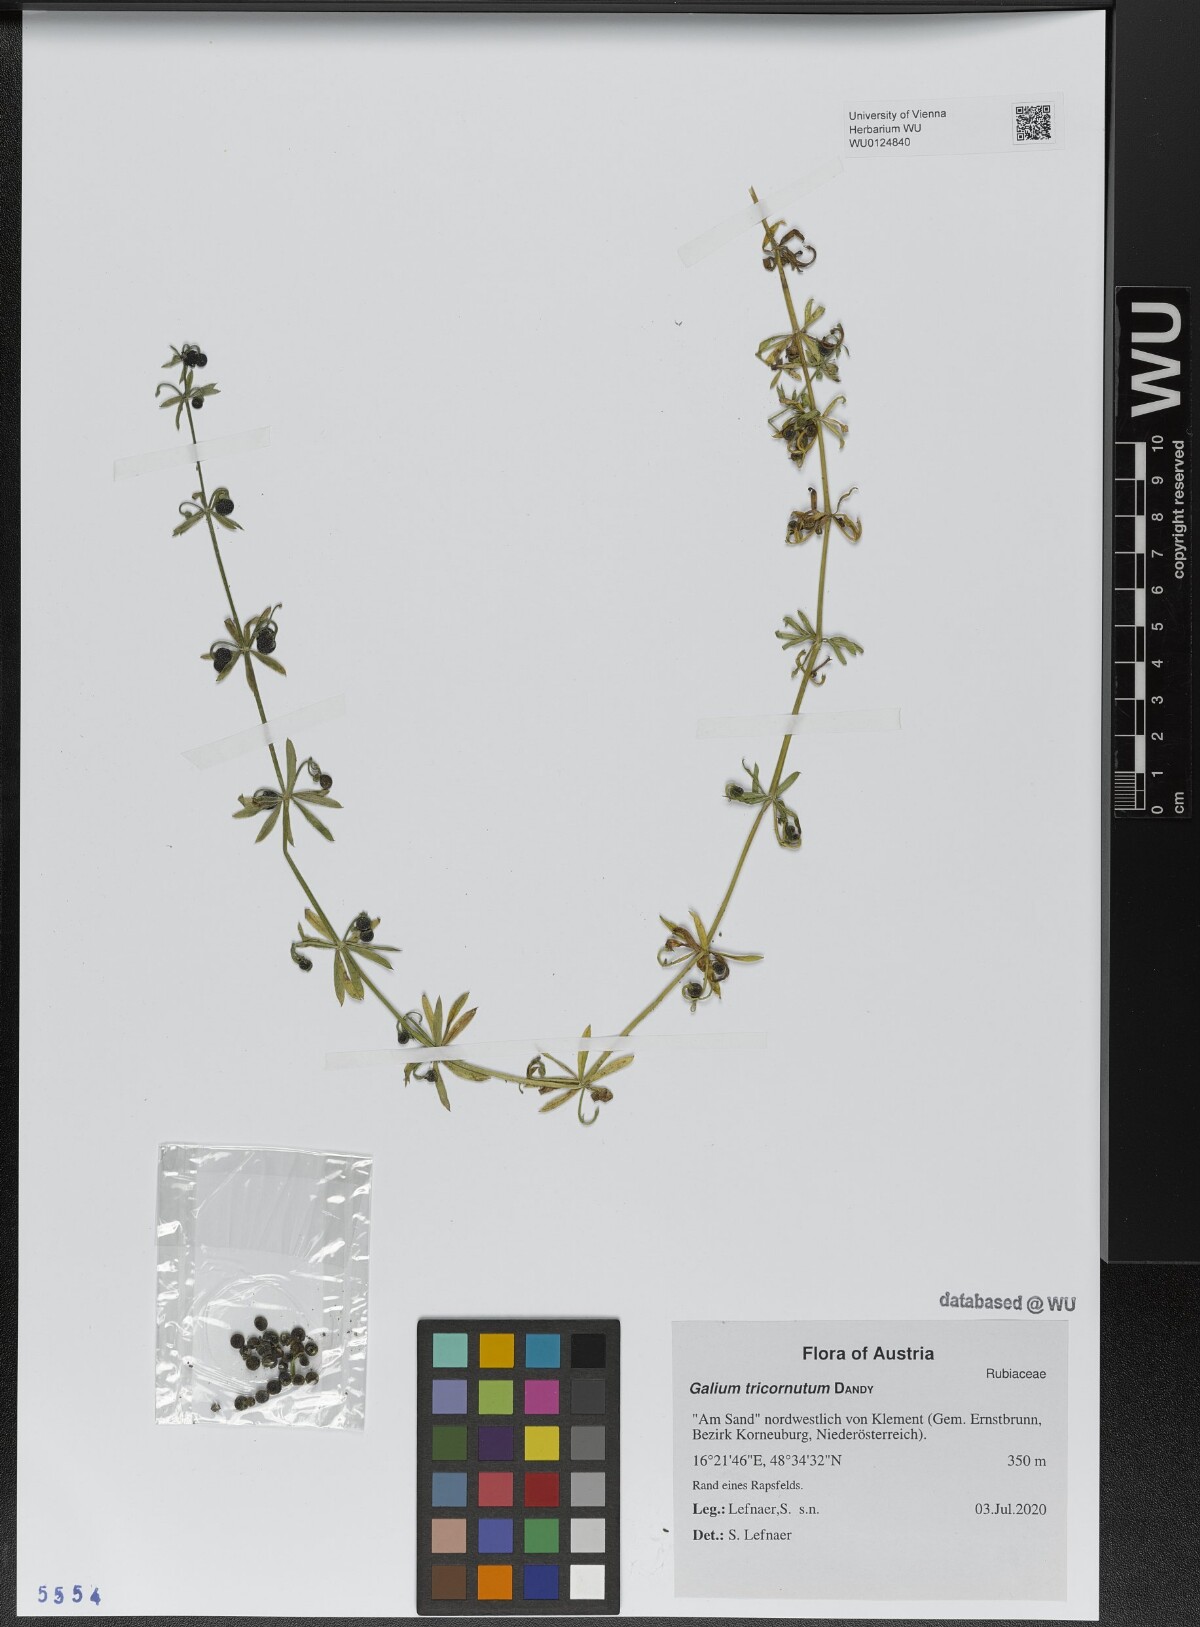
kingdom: Plantae
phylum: Tracheophyta
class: Magnoliopsida
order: Gentianales
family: Rubiaceae
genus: Galium
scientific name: Galium tricornutum
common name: Corn cleavers
